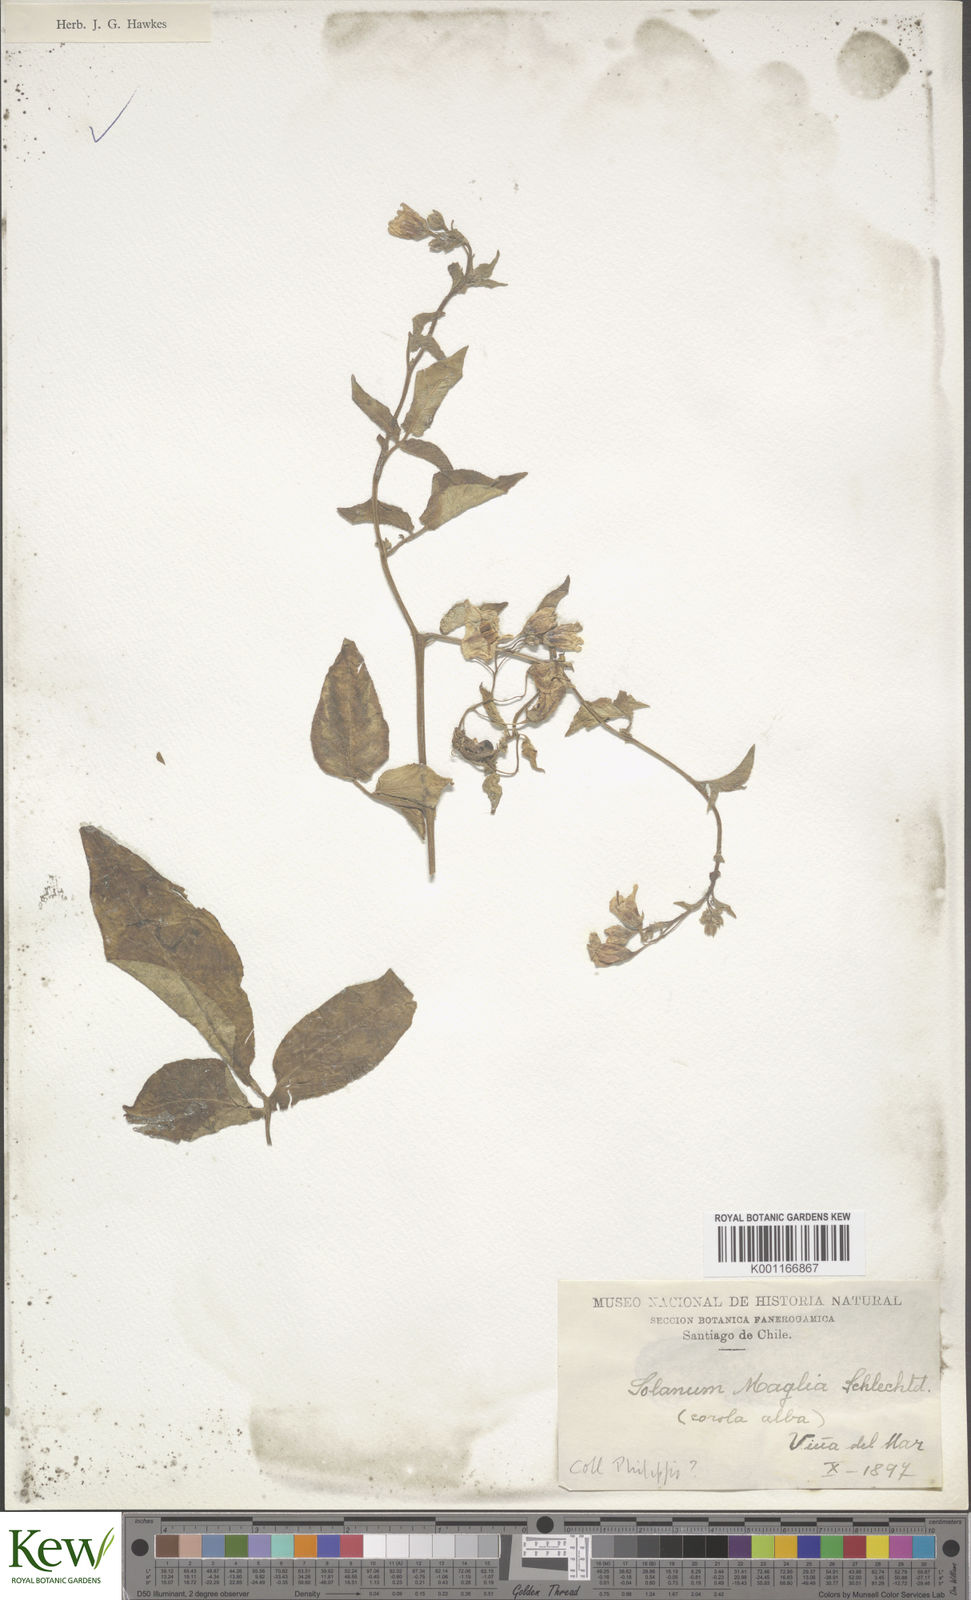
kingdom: Plantae
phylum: Tracheophyta
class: Magnoliopsida
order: Solanales
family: Solanaceae
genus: Solanum
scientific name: Solanum maglia
